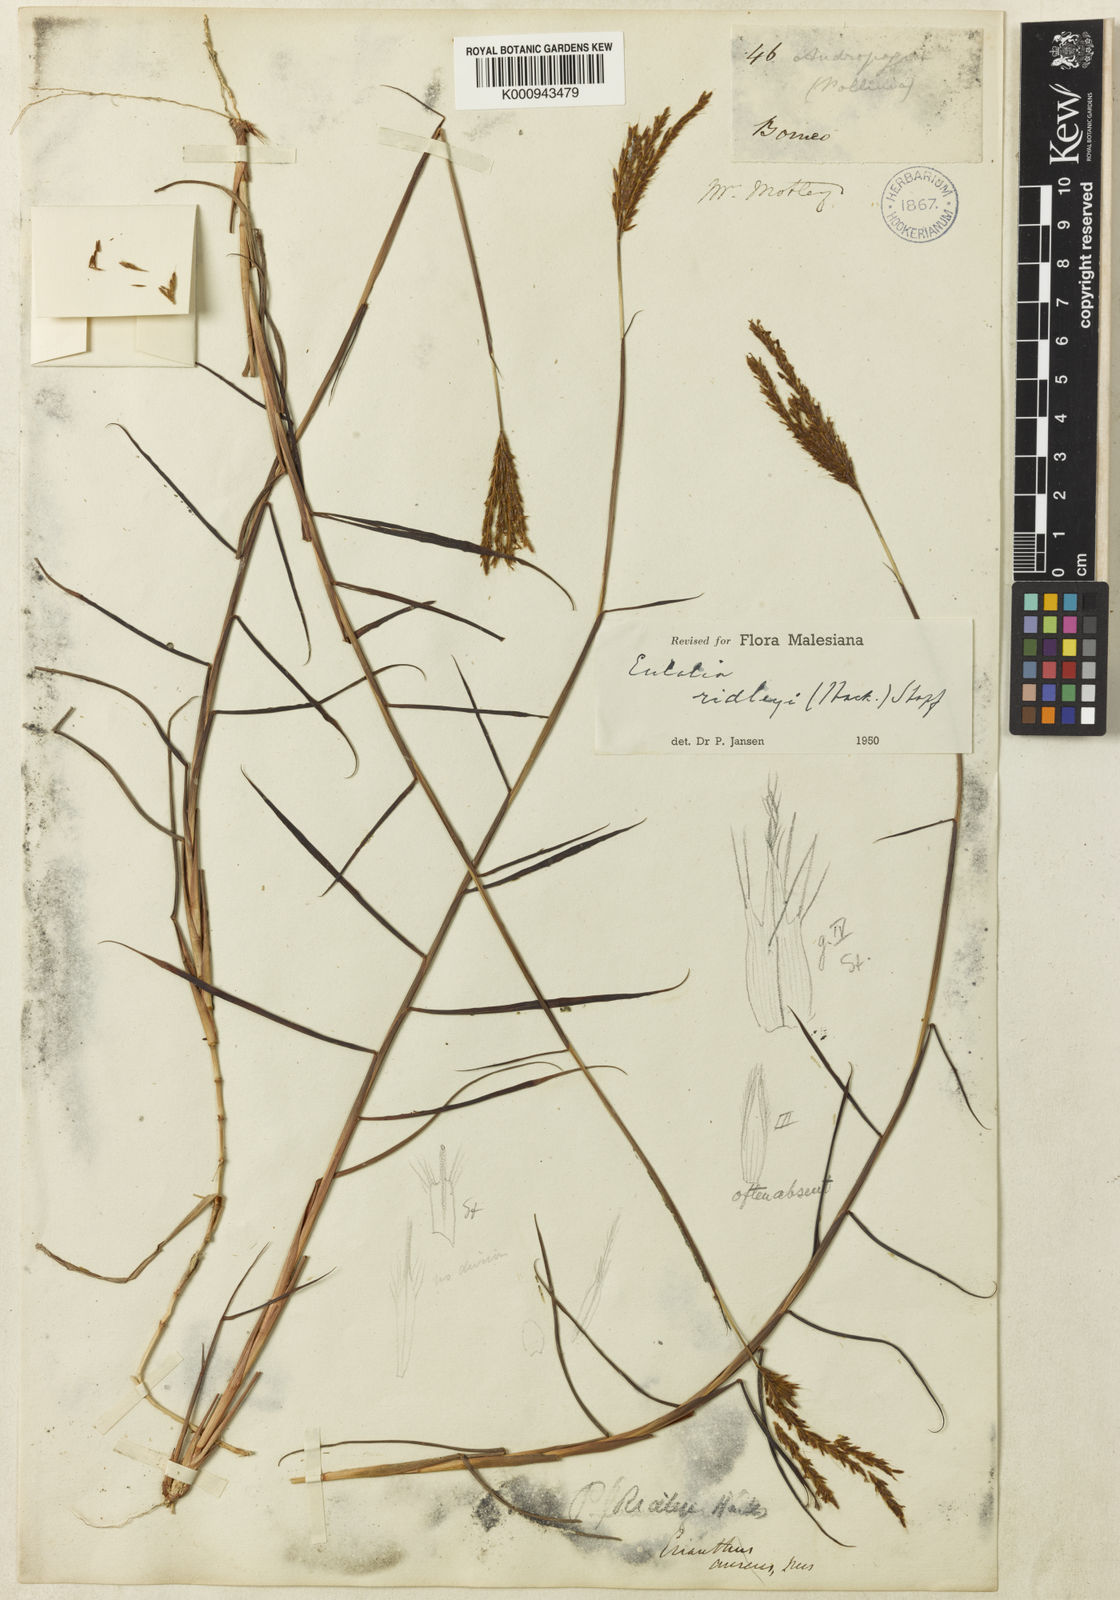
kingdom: Plantae
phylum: Tracheophyta
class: Liliopsida
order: Poales
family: Poaceae
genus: Eulalia
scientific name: Eulalia ridleyi
